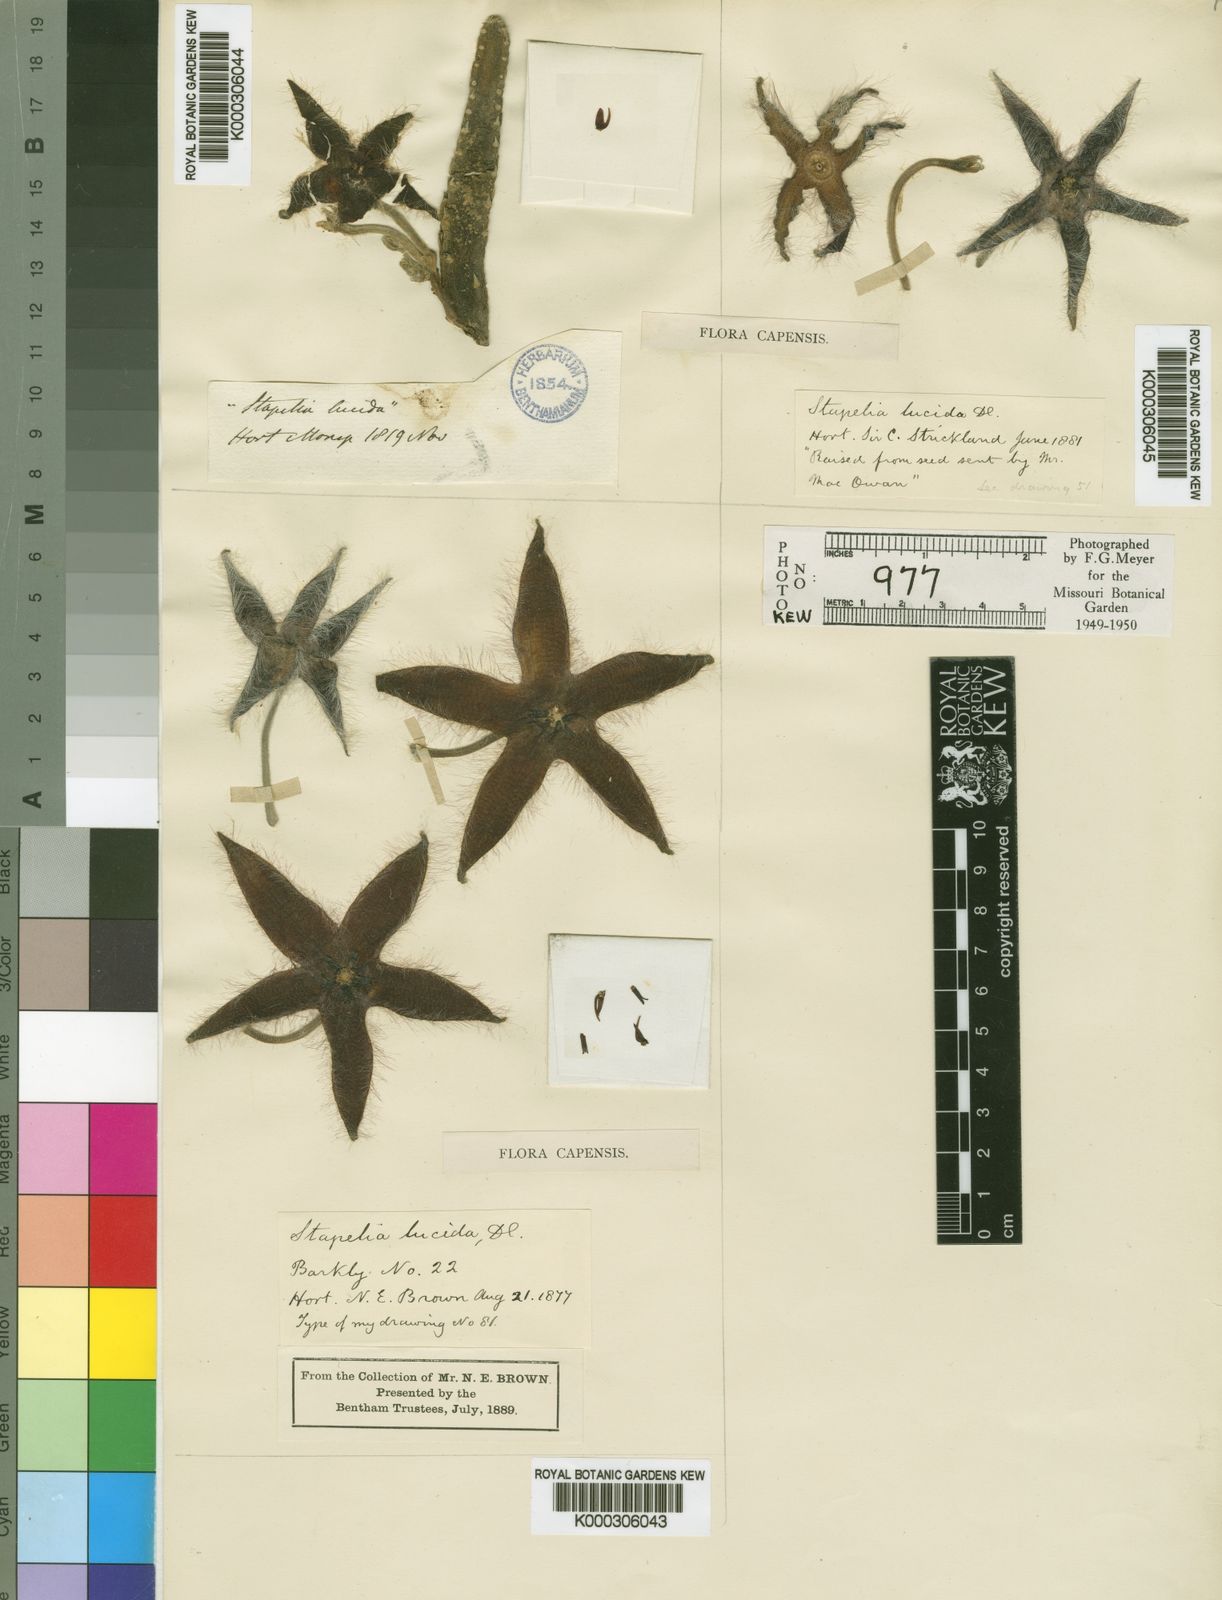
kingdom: Plantae
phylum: Tracheophyta
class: Magnoliopsida
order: Gentianales
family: Apocynaceae
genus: Ceropegia
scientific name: Ceropegia pulvinata
